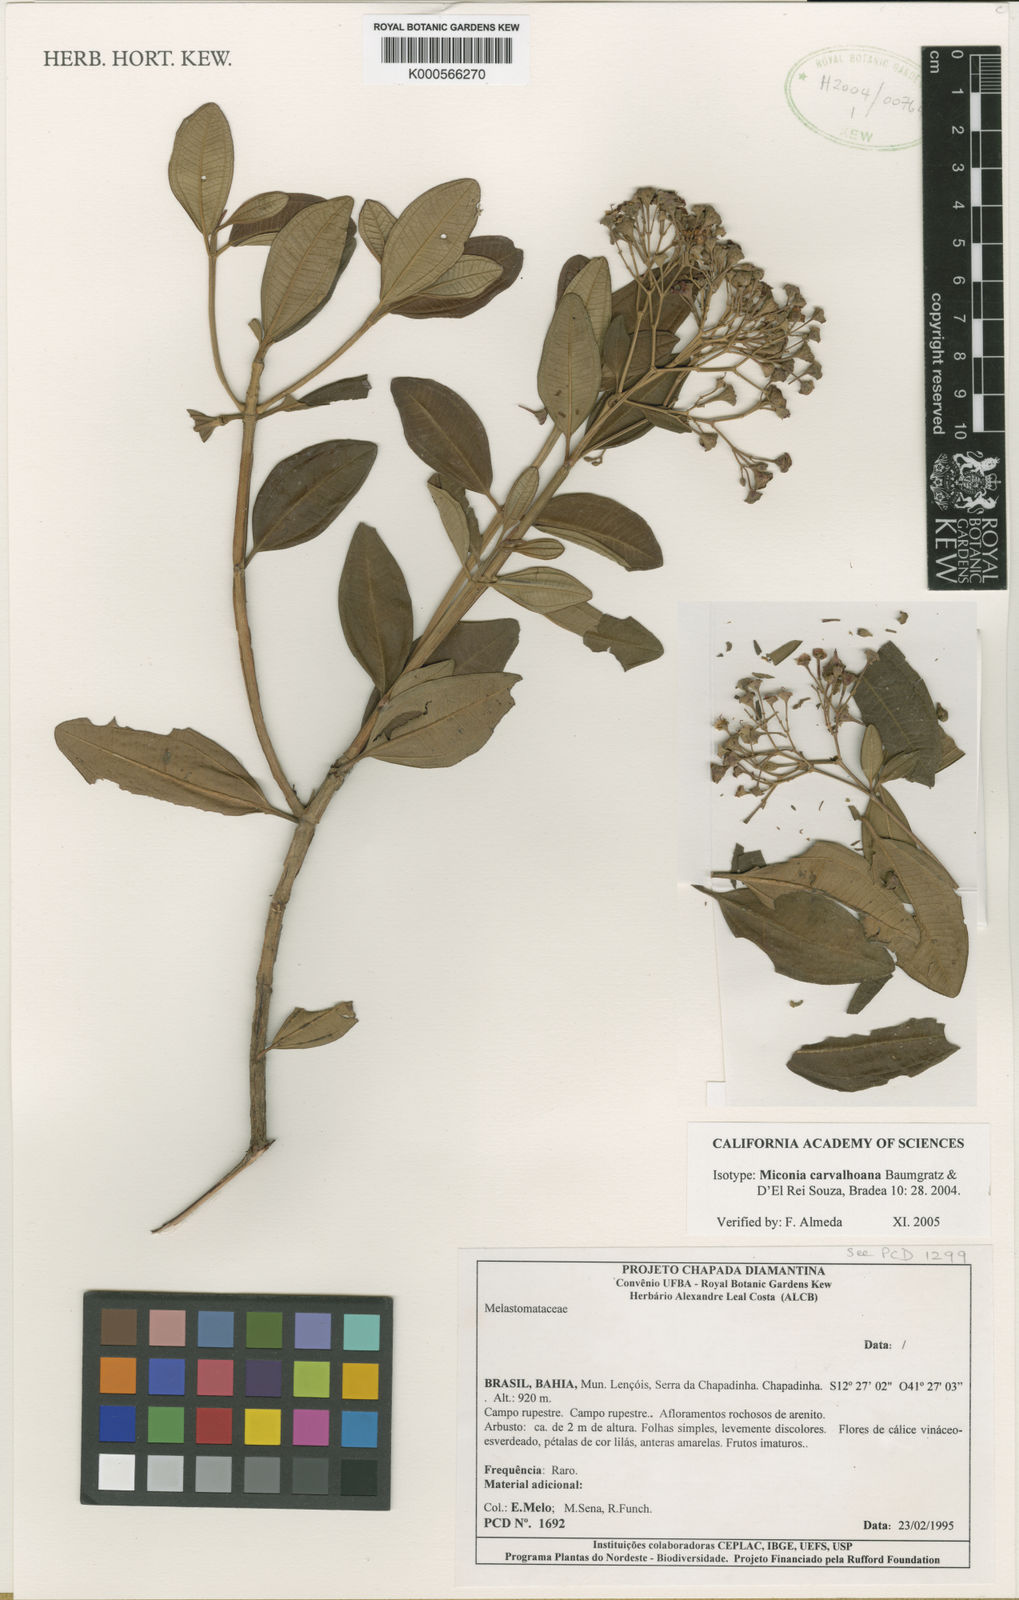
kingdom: Plantae
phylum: Tracheophyta
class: Magnoliopsida
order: Myrtales
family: Melastomataceae
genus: Rupestrea
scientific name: Rupestrea carvalhoana
